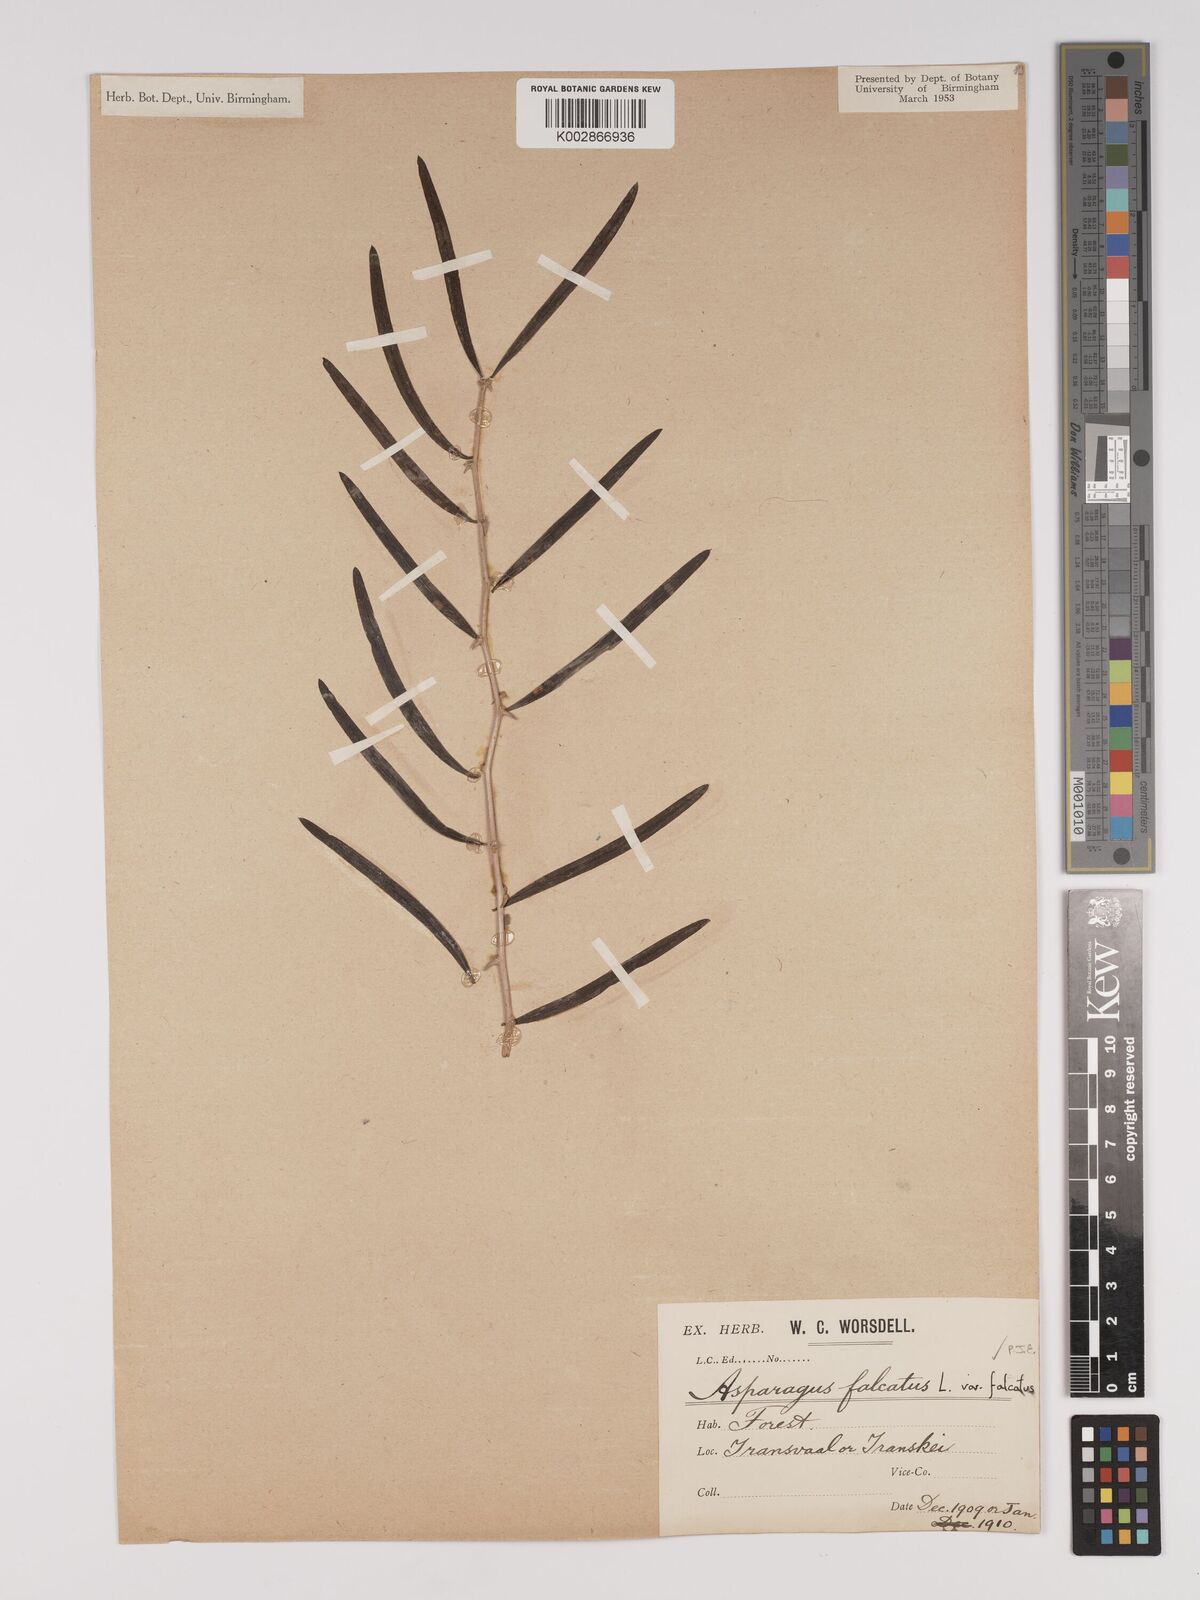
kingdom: Plantae
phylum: Tracheophyta
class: Liliopsida
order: Asparagales
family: Asparagaceae
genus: Asparagus
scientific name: Asparagus falcatus
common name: Asparagus
